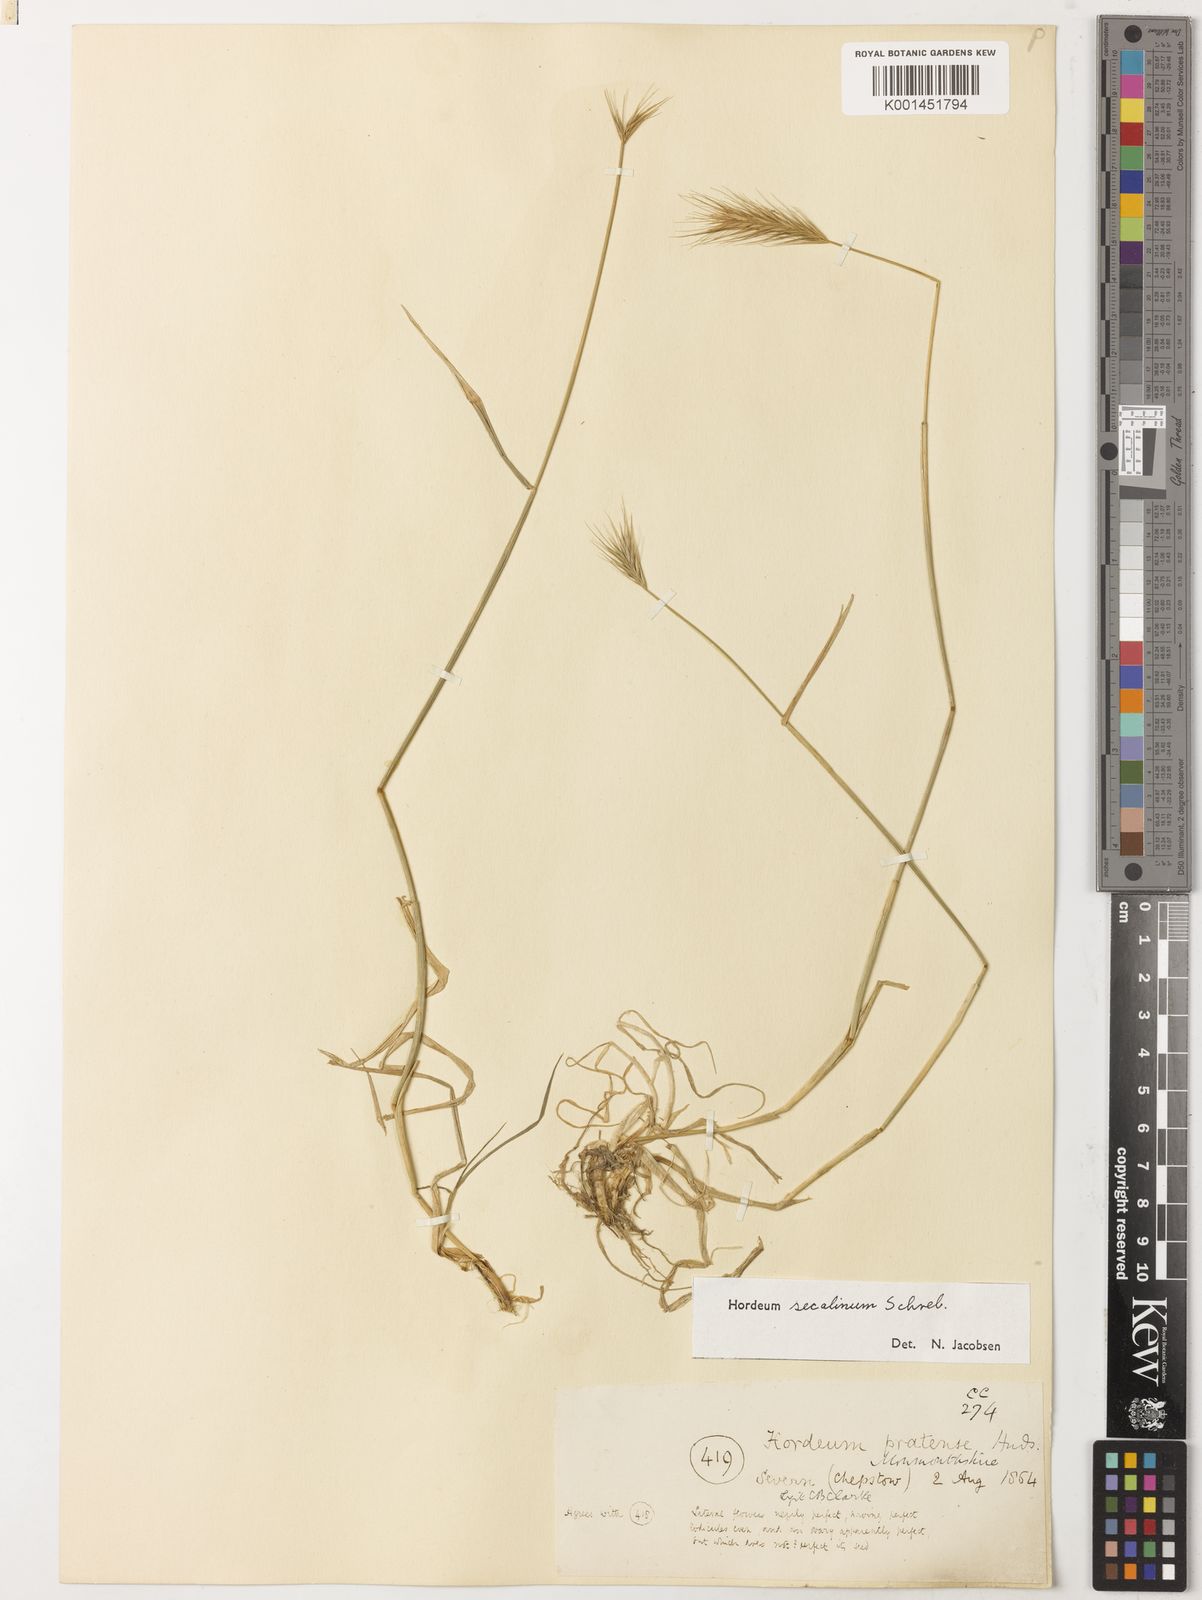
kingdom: Plantae
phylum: Tracheophyta
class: Liliopsida
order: Poales
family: Poaceae
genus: Hordeum
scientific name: Hordeum secalinum
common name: Meadow barley
